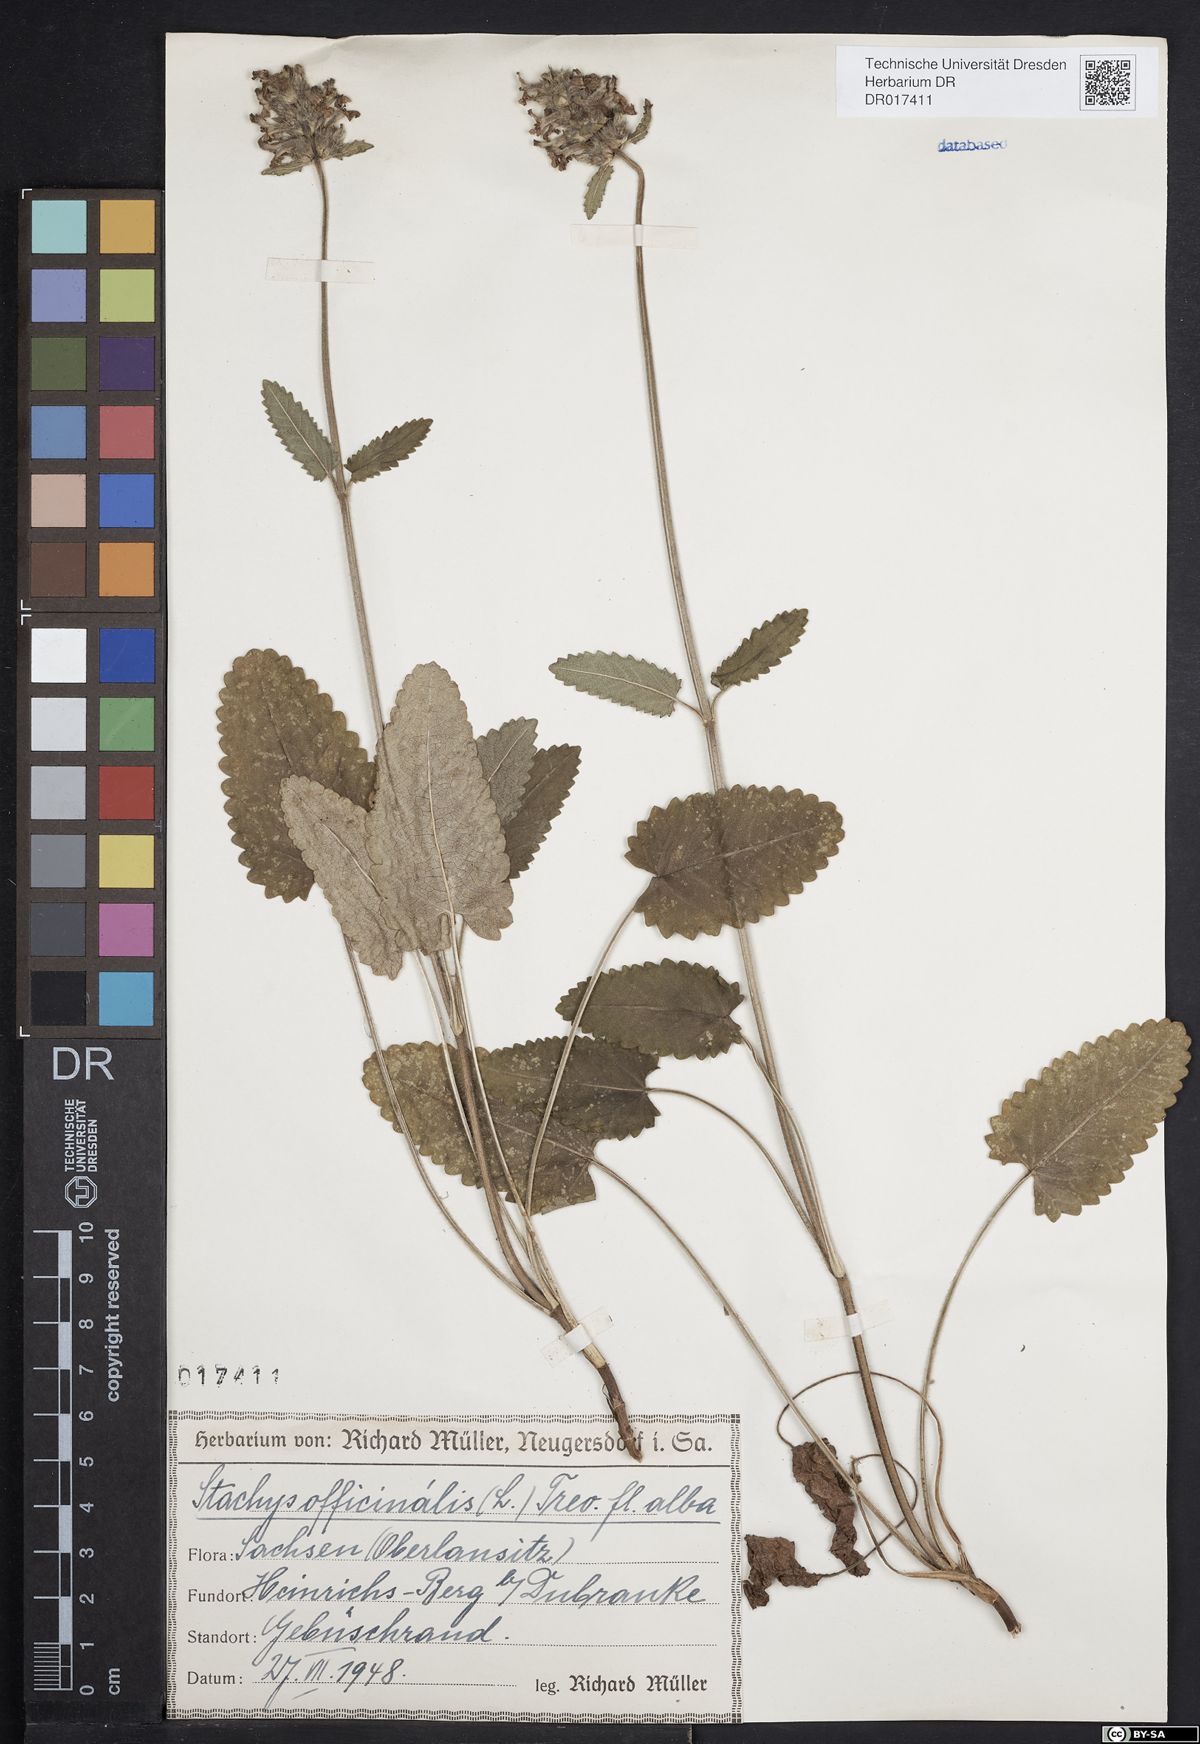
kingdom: Plantae
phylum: Tracheophyta
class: Magnoliopsida
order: Lamiales
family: Lamiaceae
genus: Betonica
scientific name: Betonica officinalis
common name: Bishop's-wort
